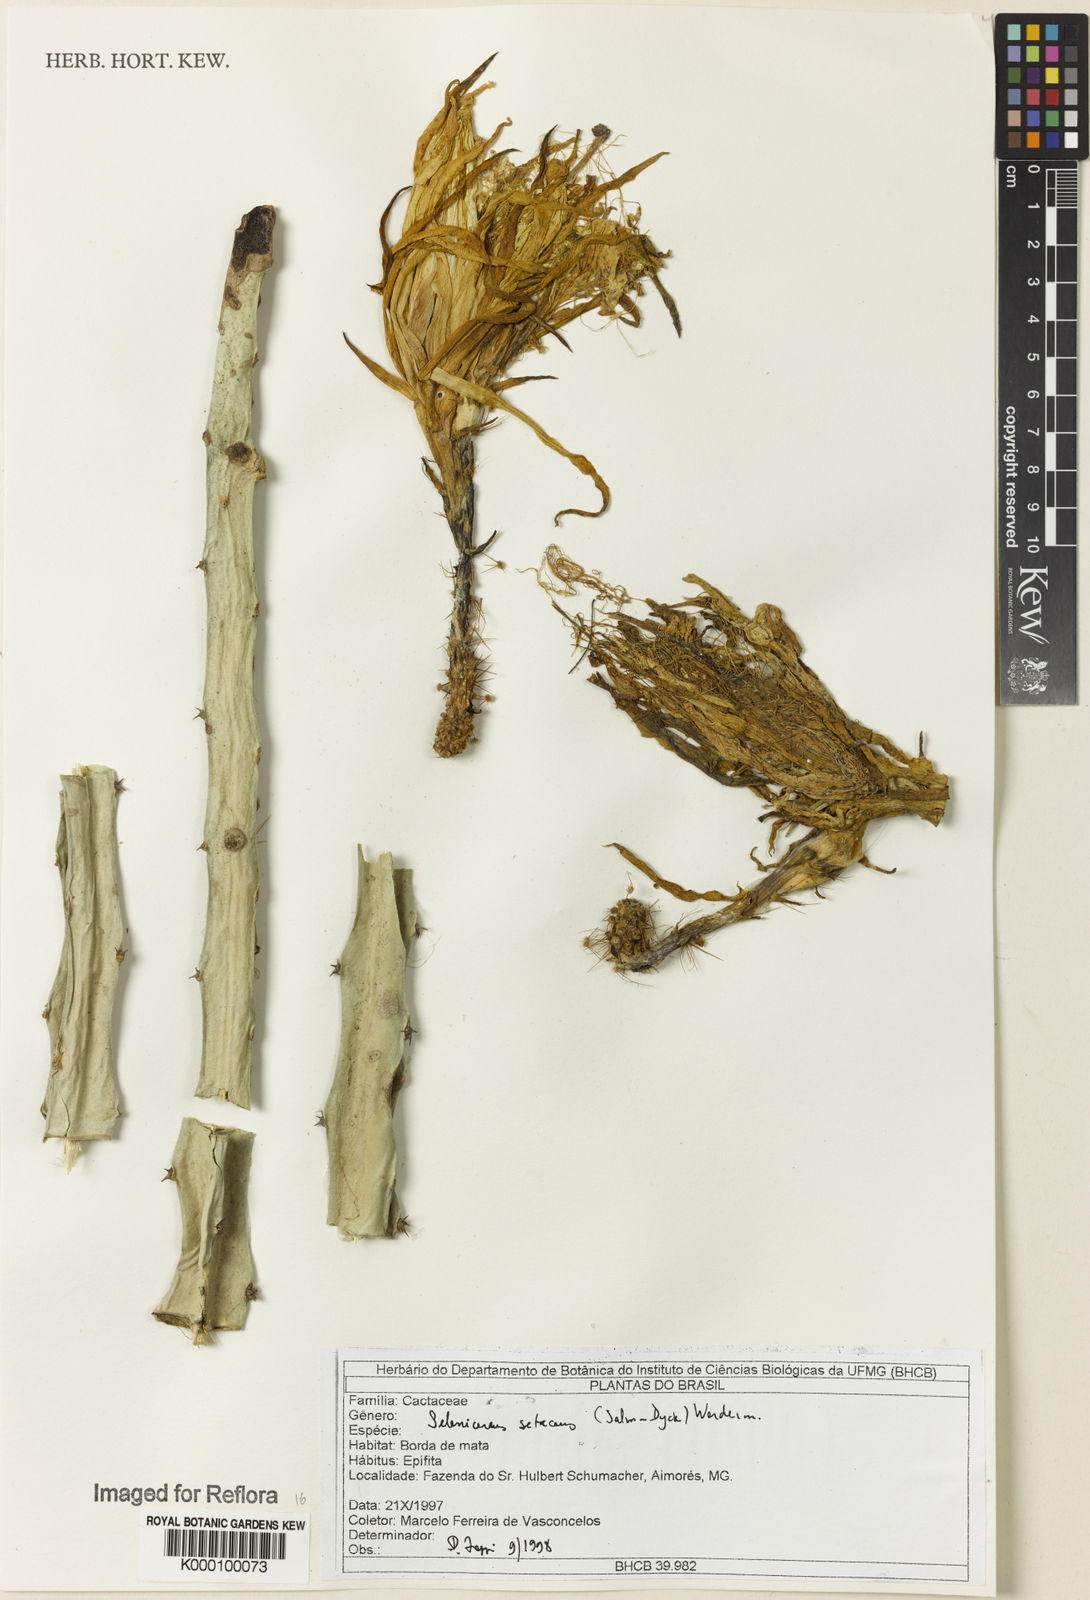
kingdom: Plantae
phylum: Tracheophyta
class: Magnoliopsida
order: Caryophyllales
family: Cactaceae
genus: Selenicereus
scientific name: Selenicereus
